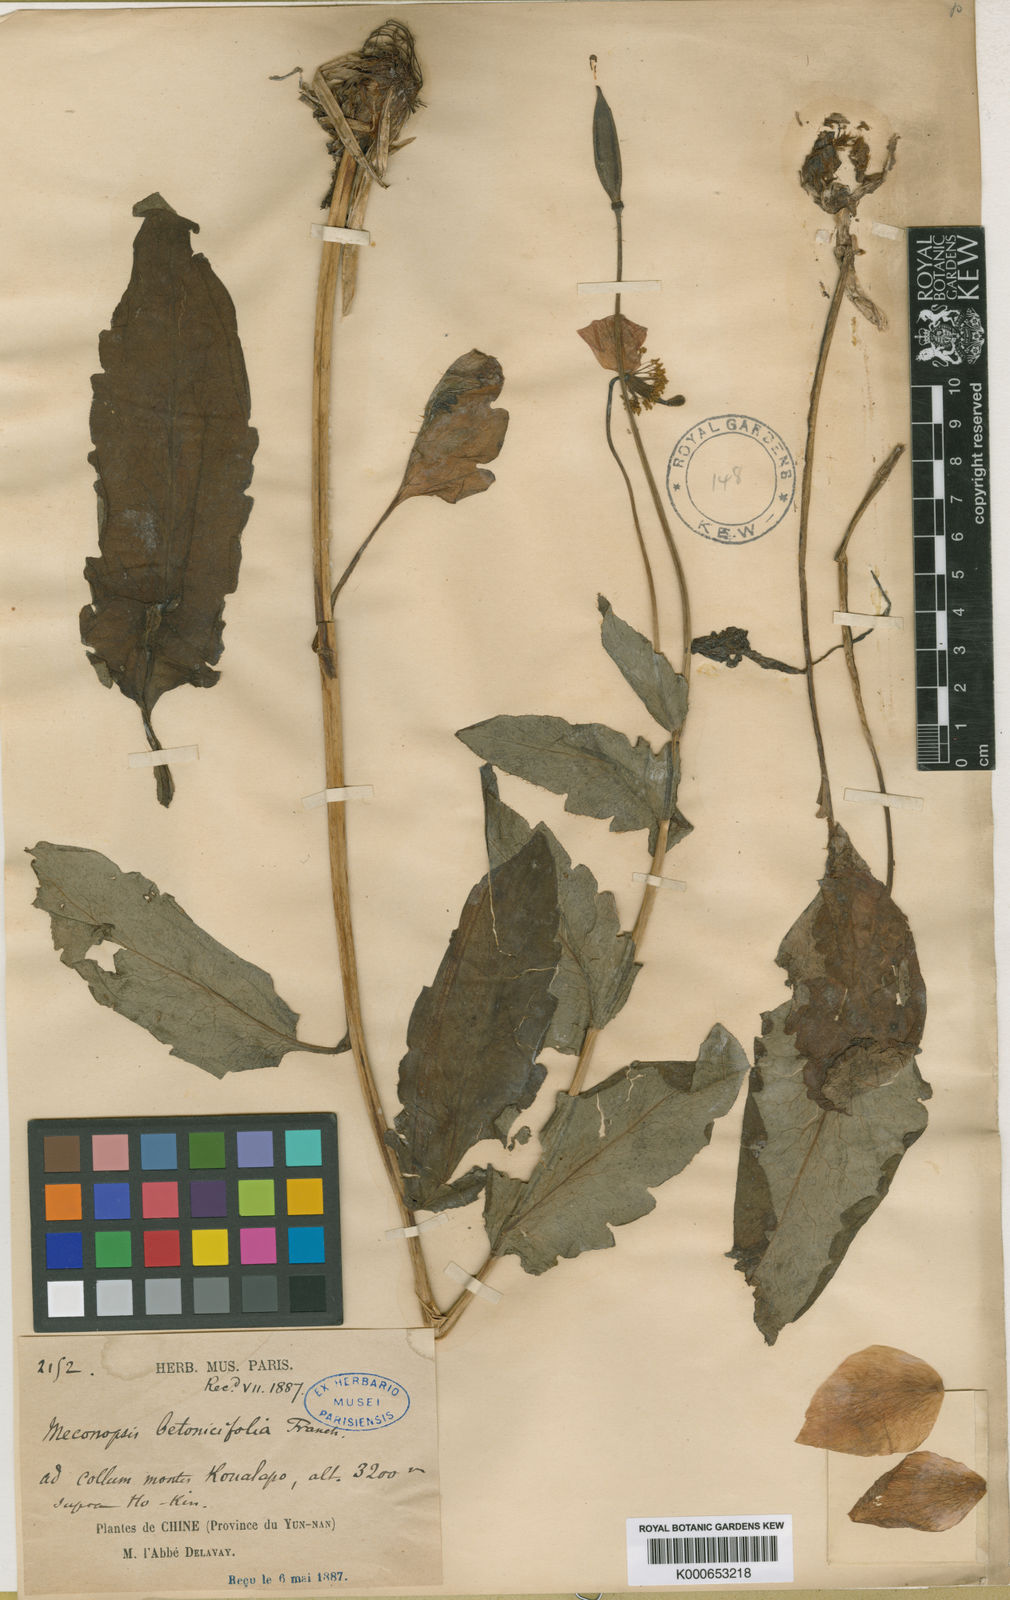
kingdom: Plantae
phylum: Tracheophyta
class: Magnoliopsida
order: Ranunculales
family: Papaveraceae
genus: Cathcartia
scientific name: Cathcartia betonicifolia
